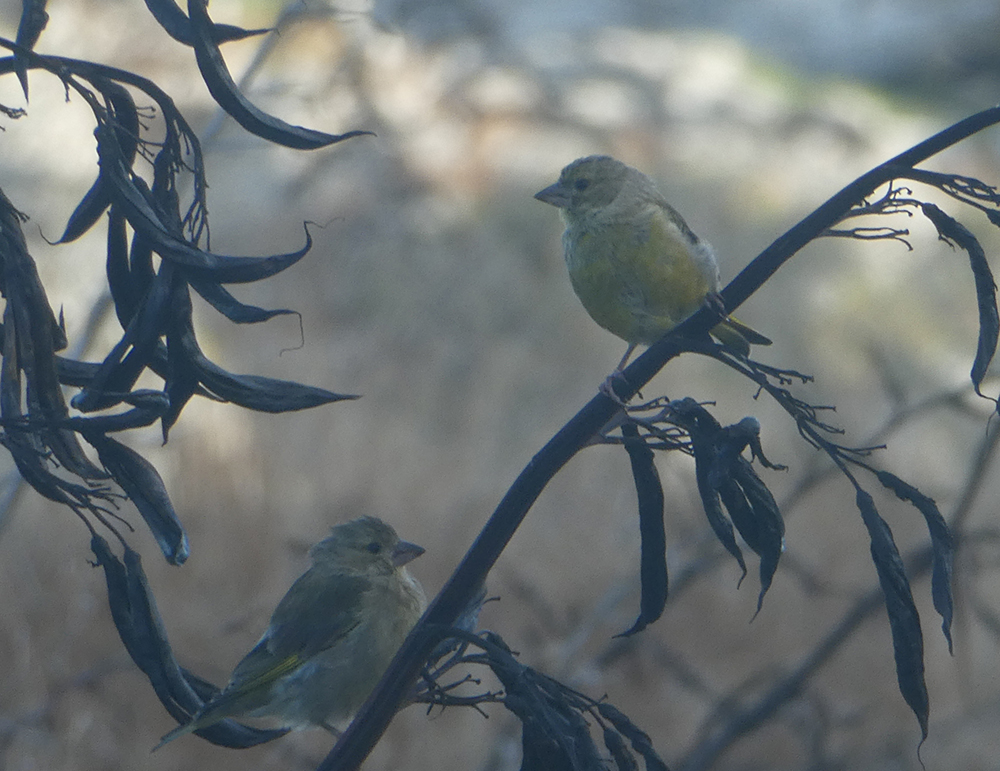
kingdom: Plantae
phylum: Tracheophyta
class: Liliopsida
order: Poales
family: Poaceae
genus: Chloris
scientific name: Chloris chloris
